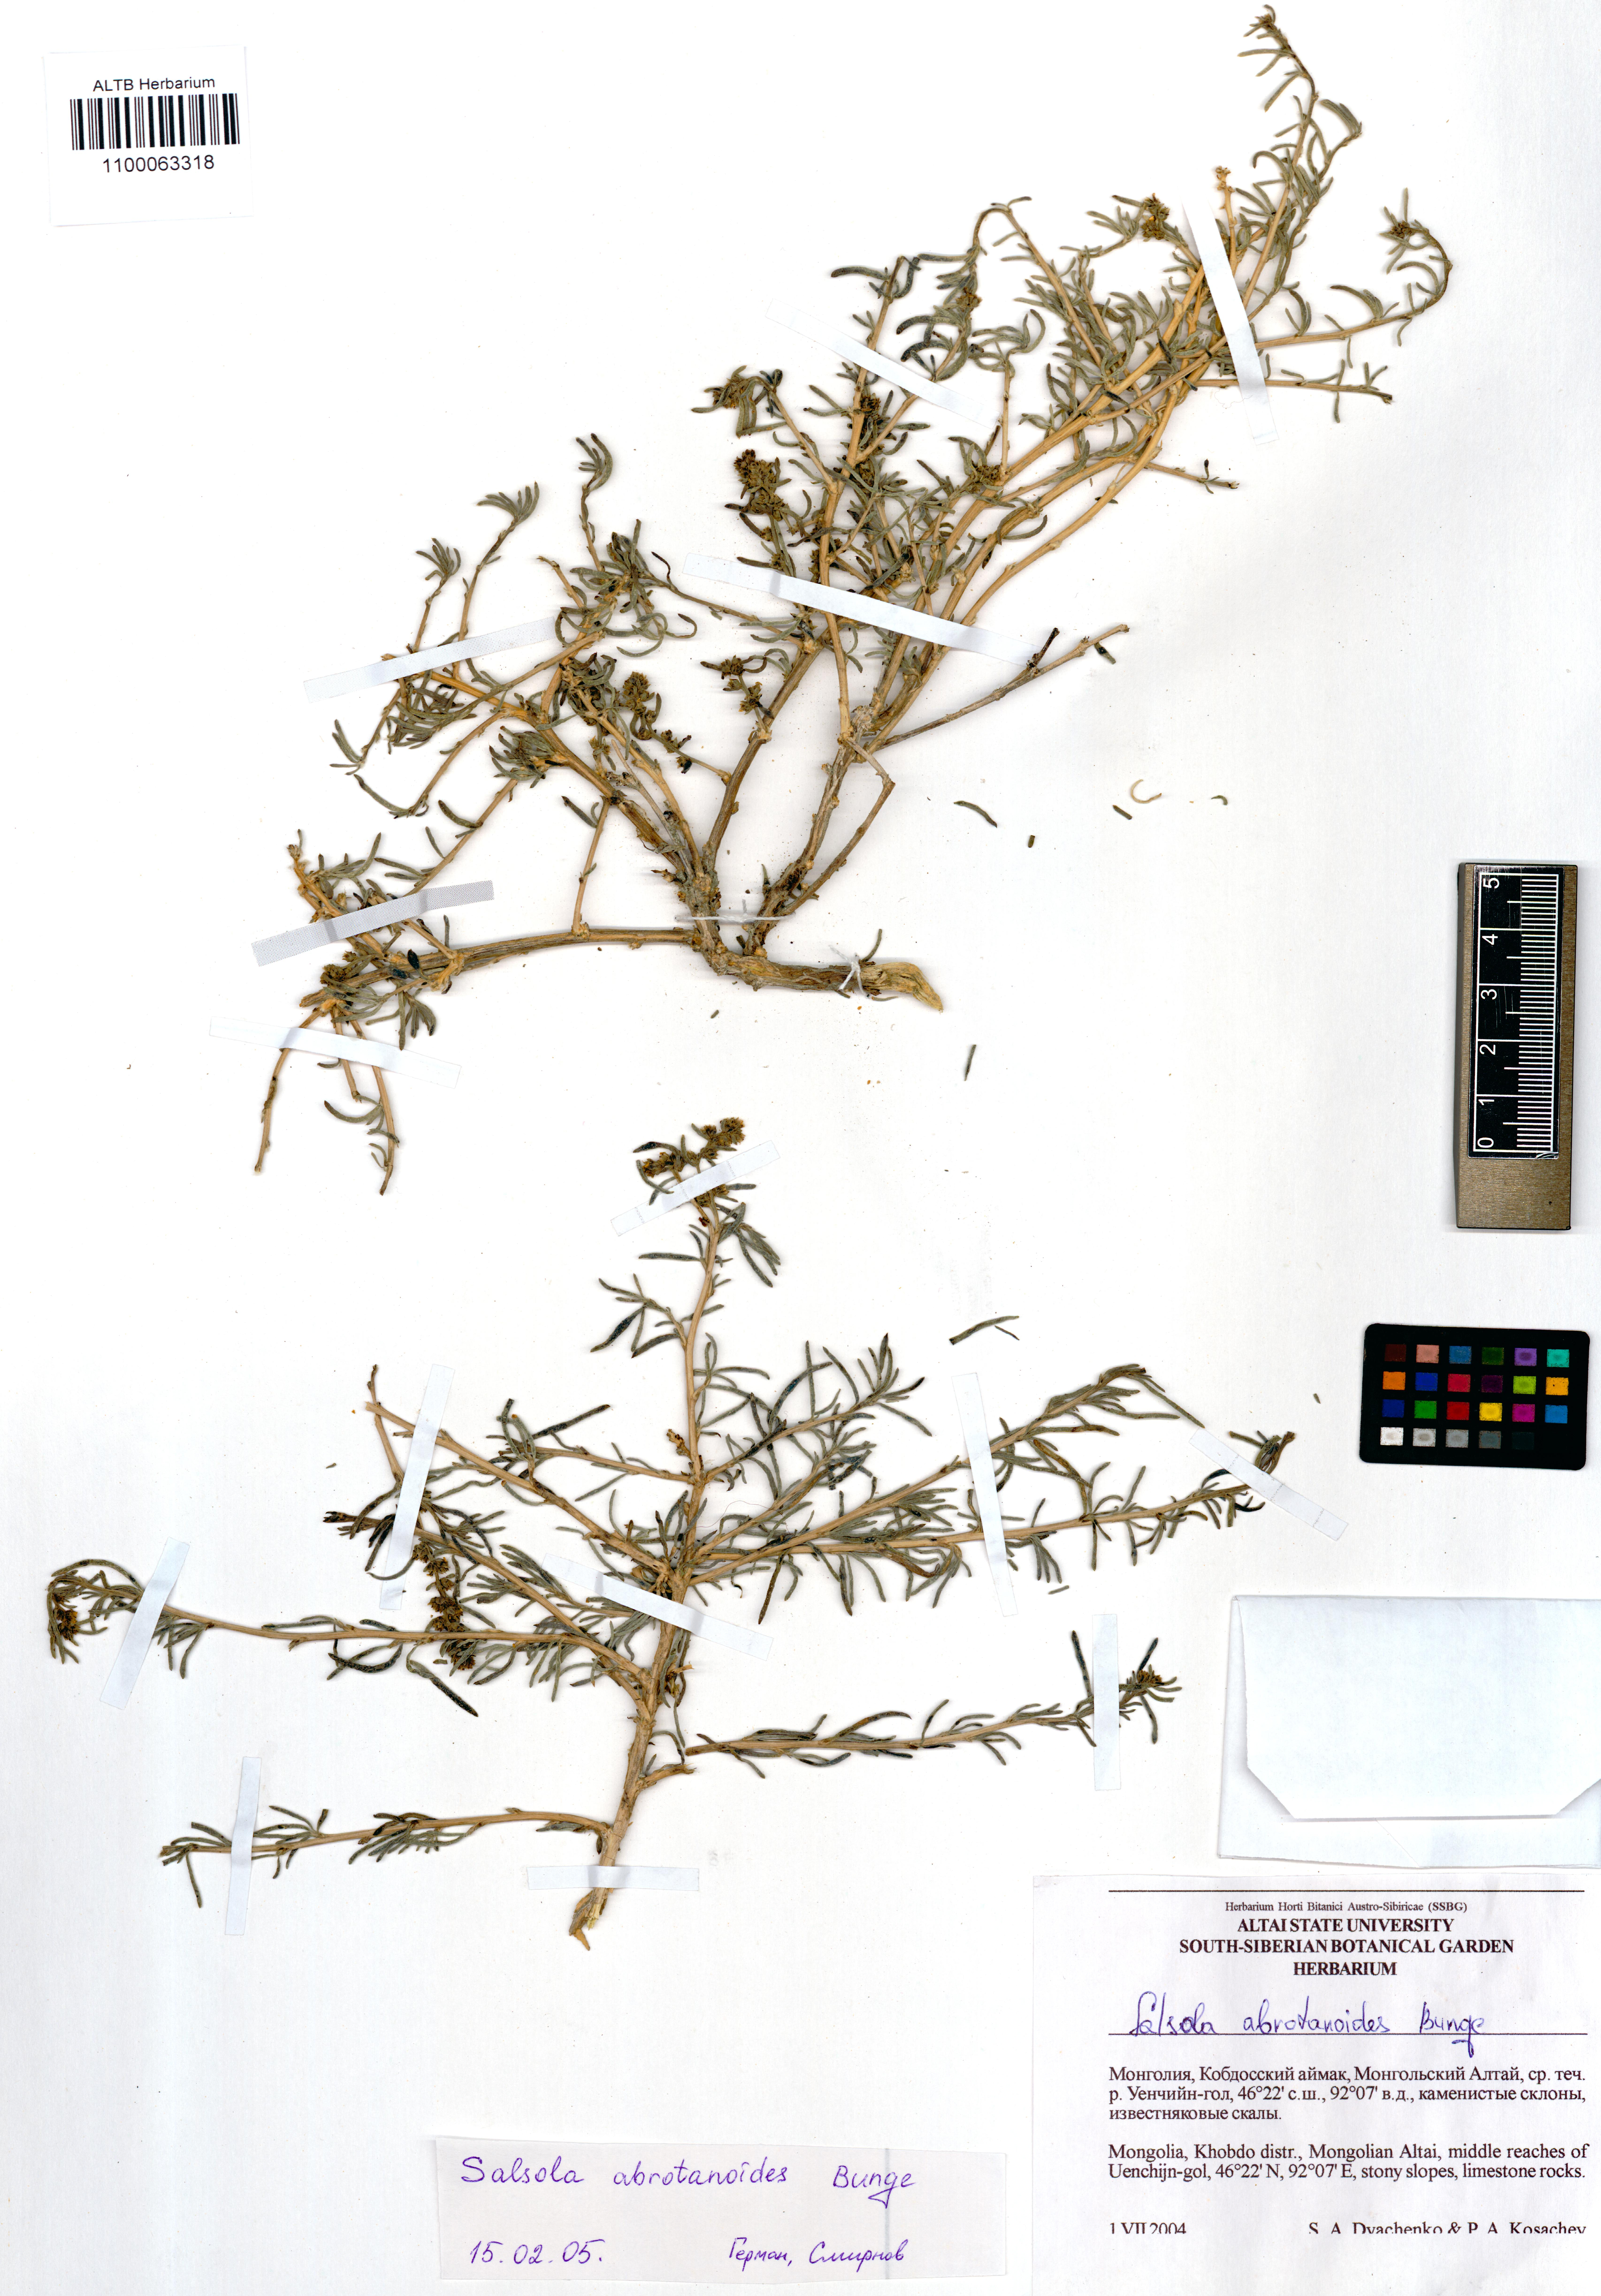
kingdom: Plantae
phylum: Tracheophyta
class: Magnoliopsida
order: Caryophyllales
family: Amaranthaceae
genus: Oreosalsola
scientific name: Oreosalsola abrotanoides
